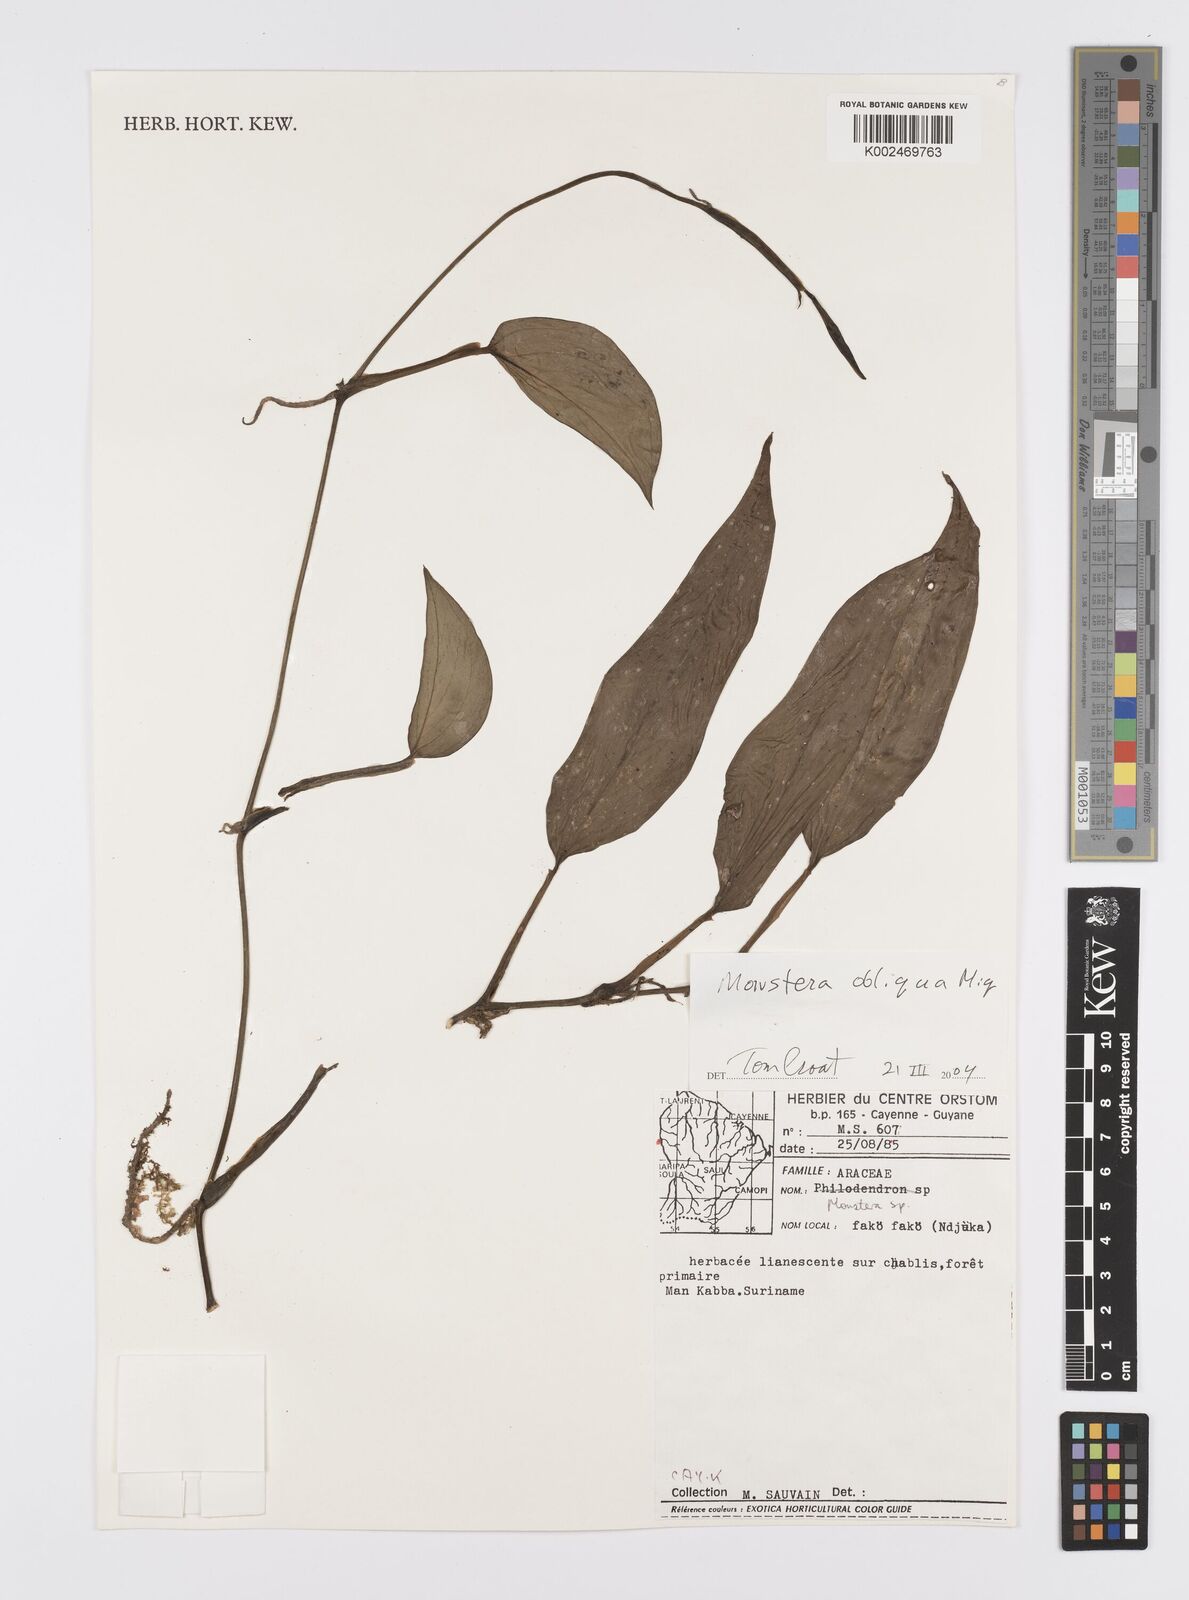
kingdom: Plantae
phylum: Tracheophyta
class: Liliopsida
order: Alismatales
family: Araceae
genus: Monstera
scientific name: Monstera obliqua
